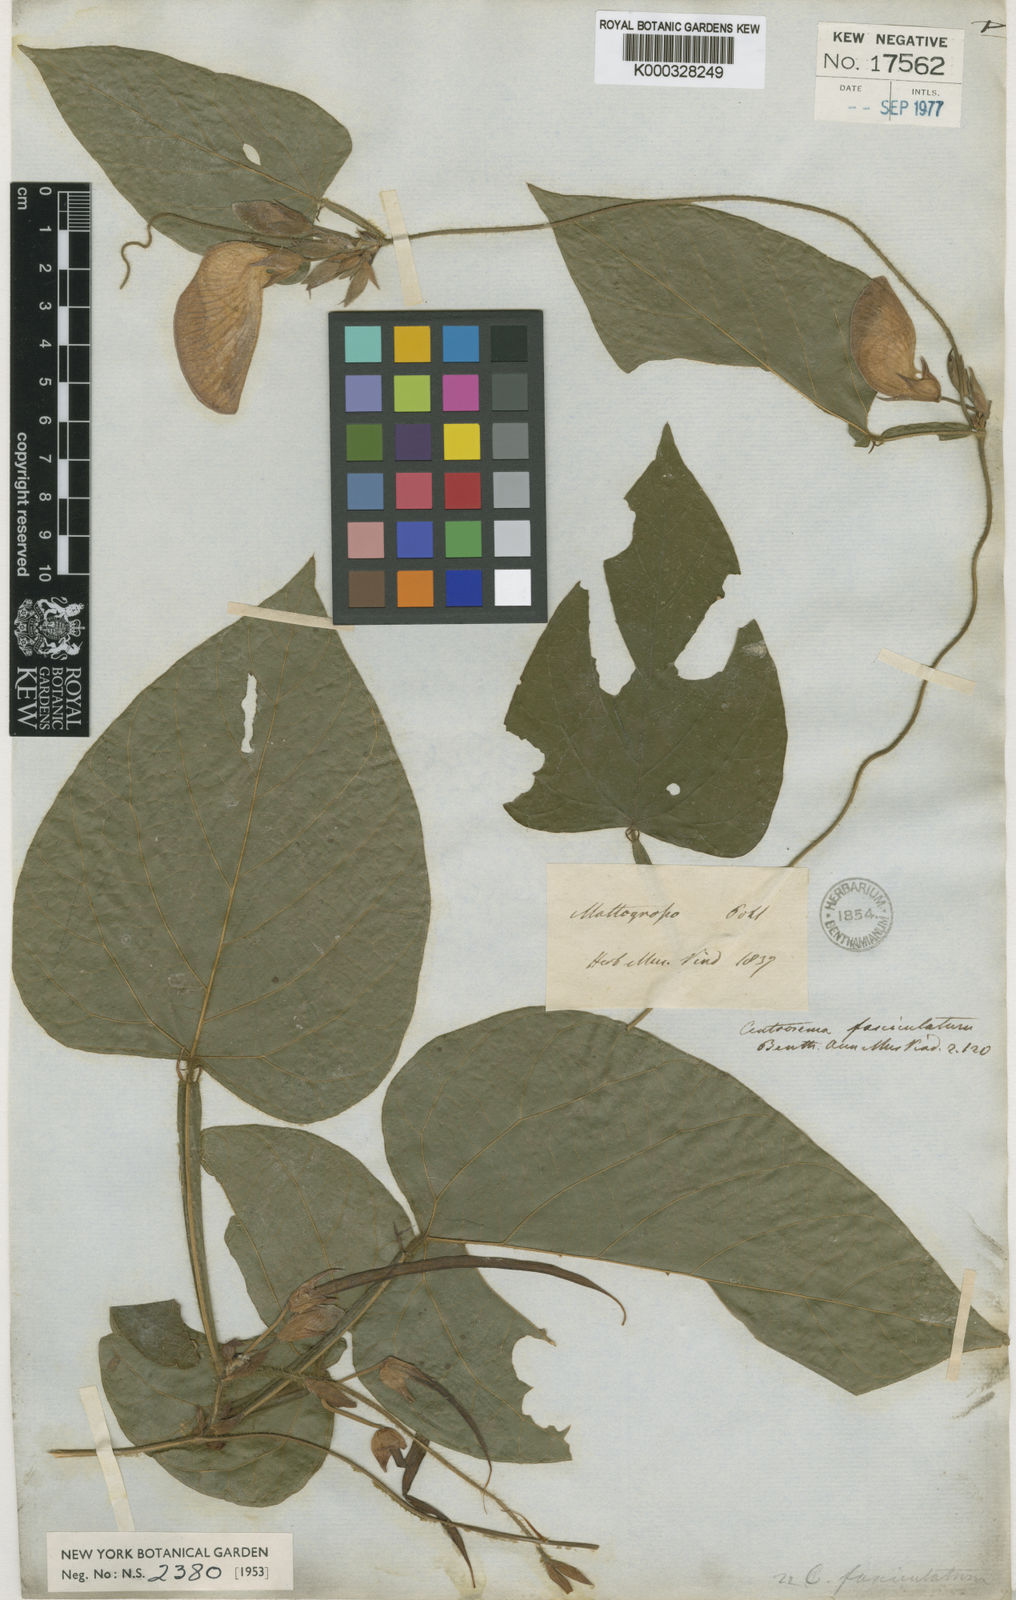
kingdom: Plantae
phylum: Tracheophyta
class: Magnoliopsida
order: Fabales
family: Fabaceae
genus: Centrosema
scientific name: Centrosema fasciculatum
